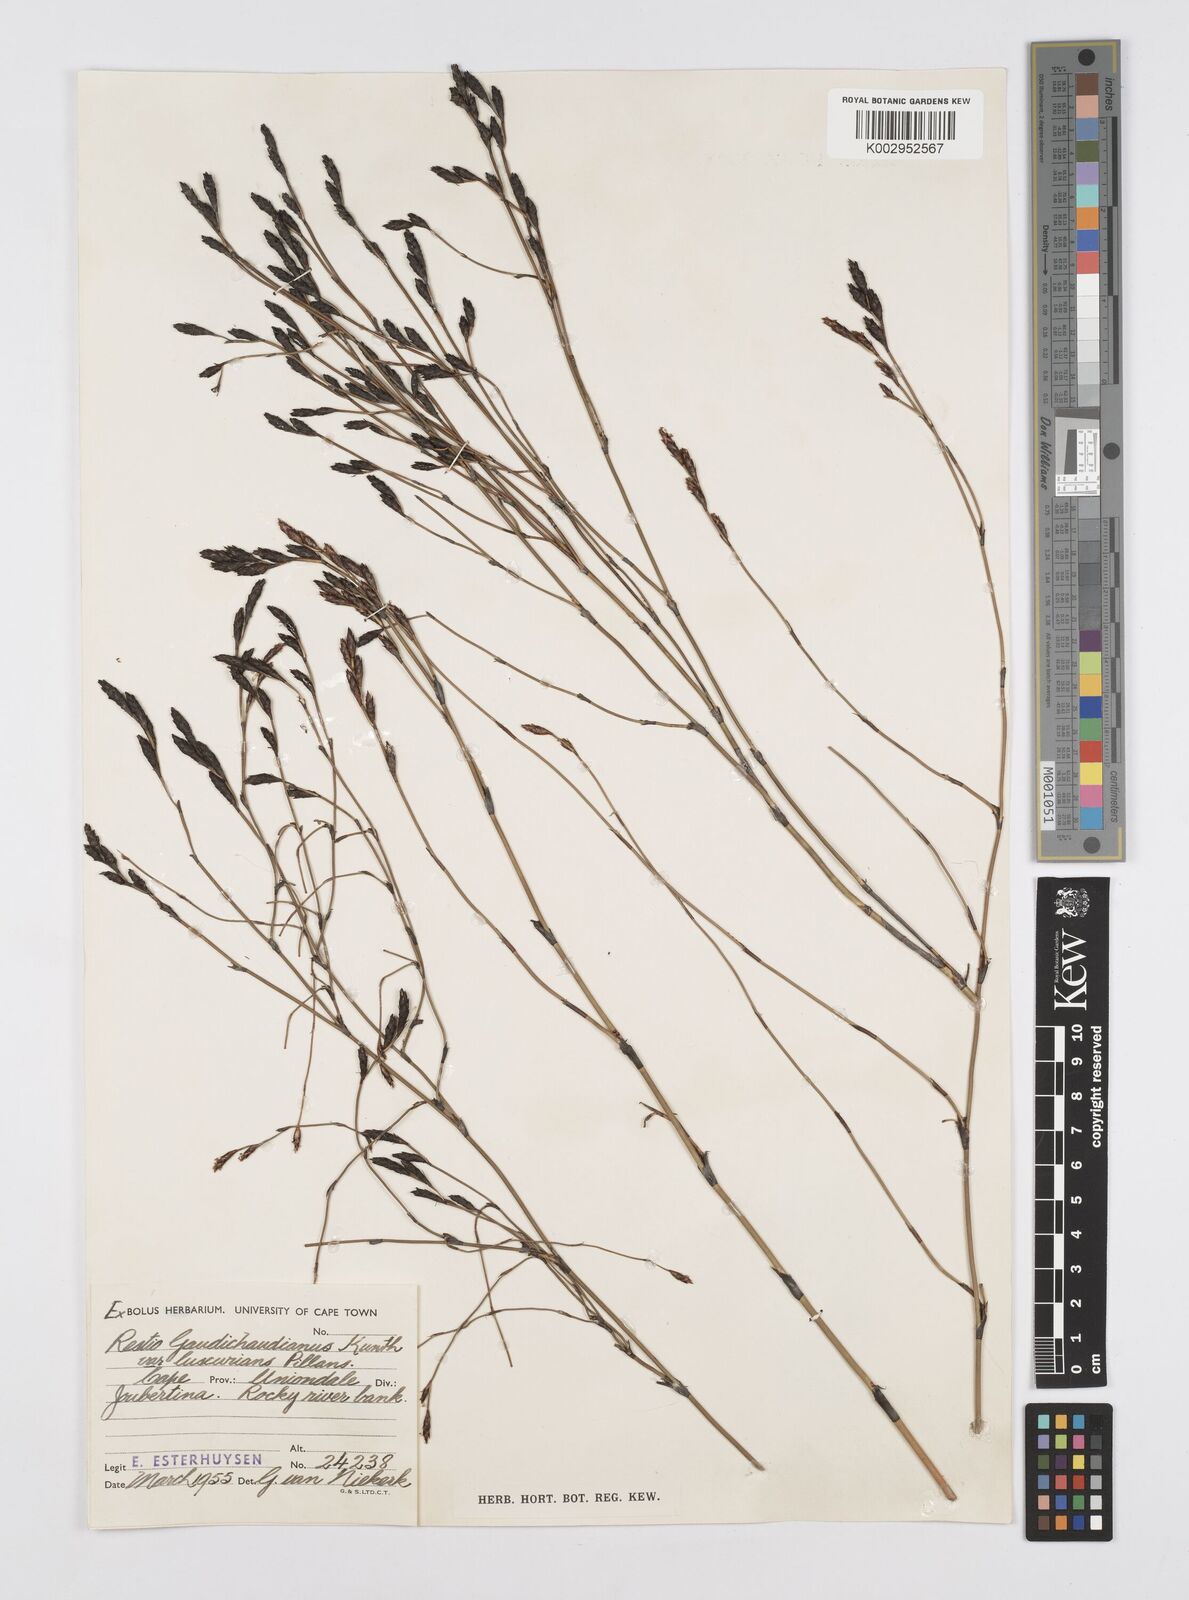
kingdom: Plantae
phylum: Tracheophyta
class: Liliopsida
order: Poales
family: Restionaceae
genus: Restio
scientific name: Restio luxurians
